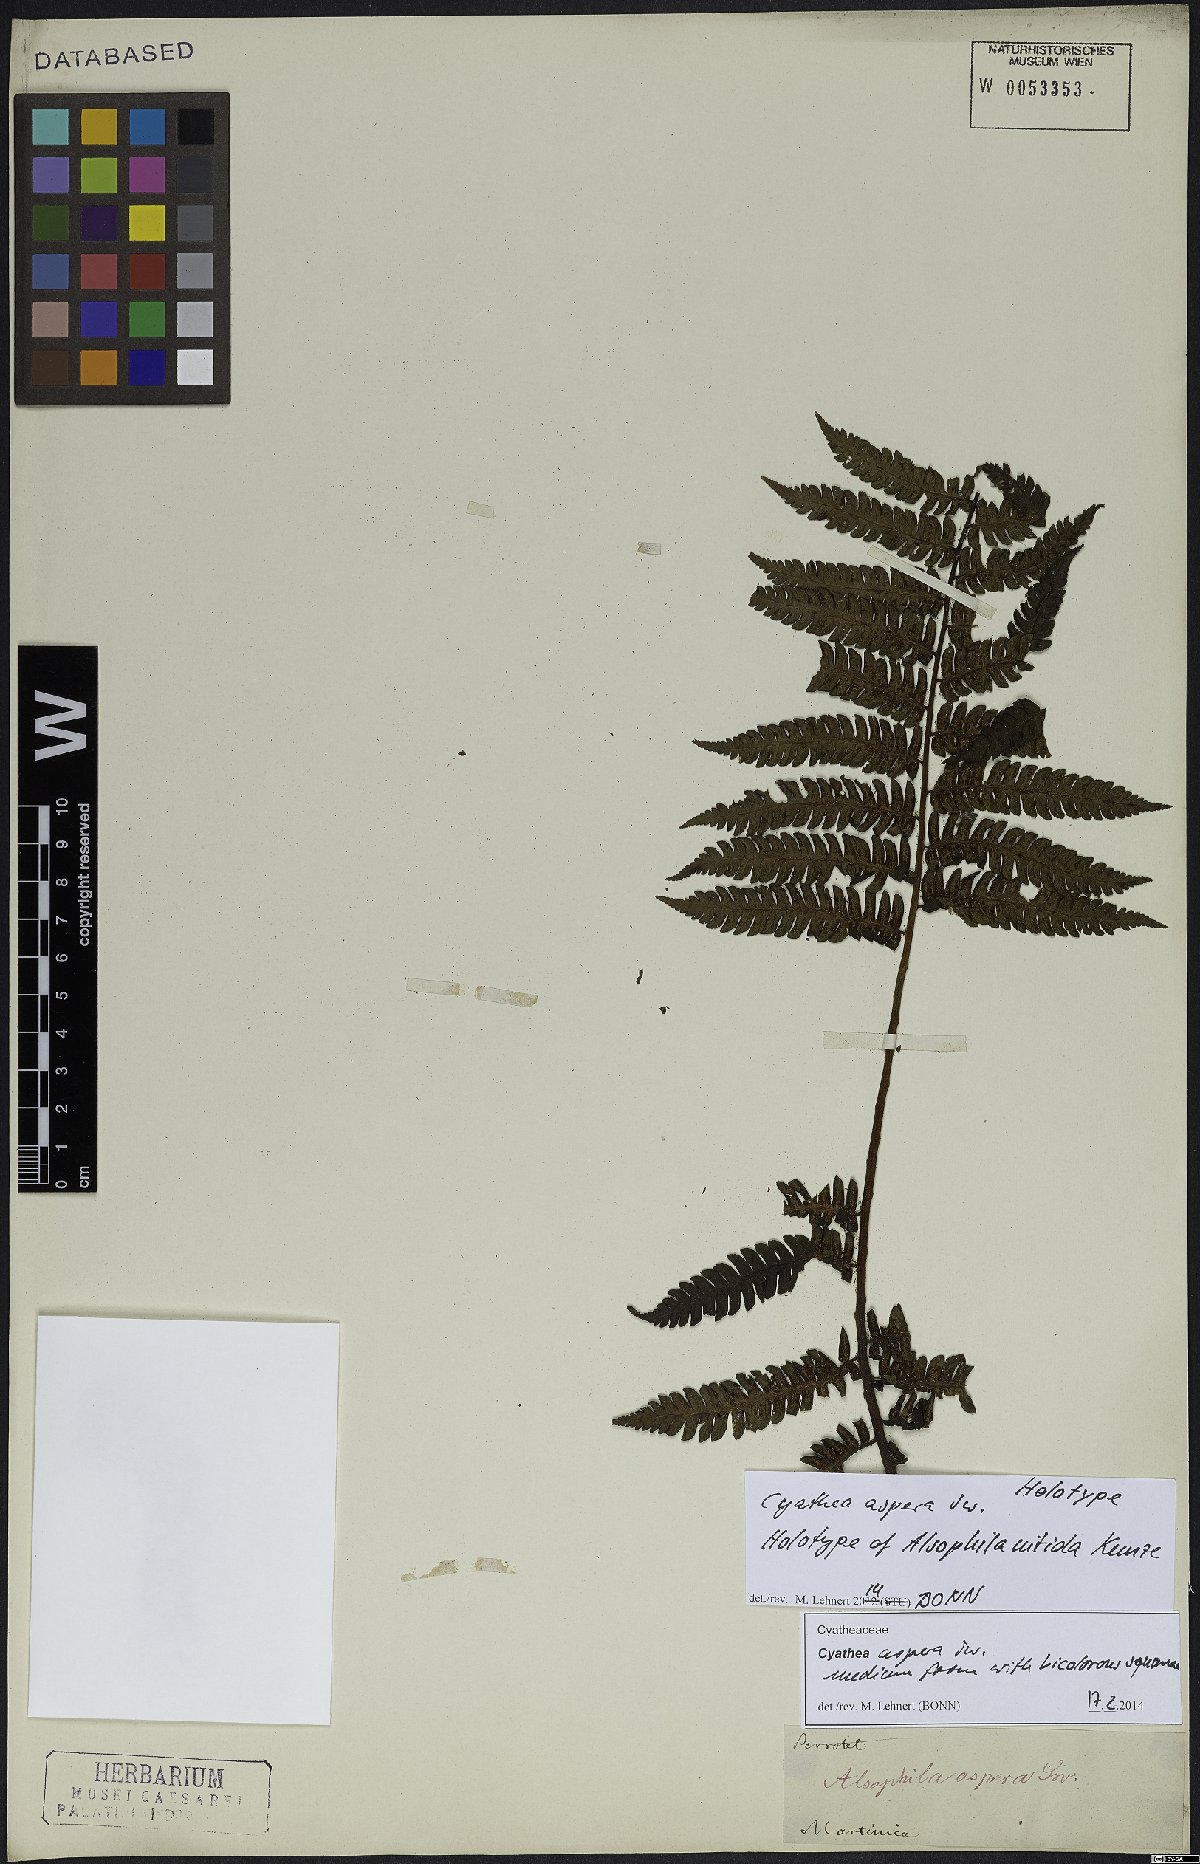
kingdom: Plantae
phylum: Tracheophyta
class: Polypodiopsida
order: Cyatheales
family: Cyatheaceae
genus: Cyathea
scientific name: Cyathea aspera
